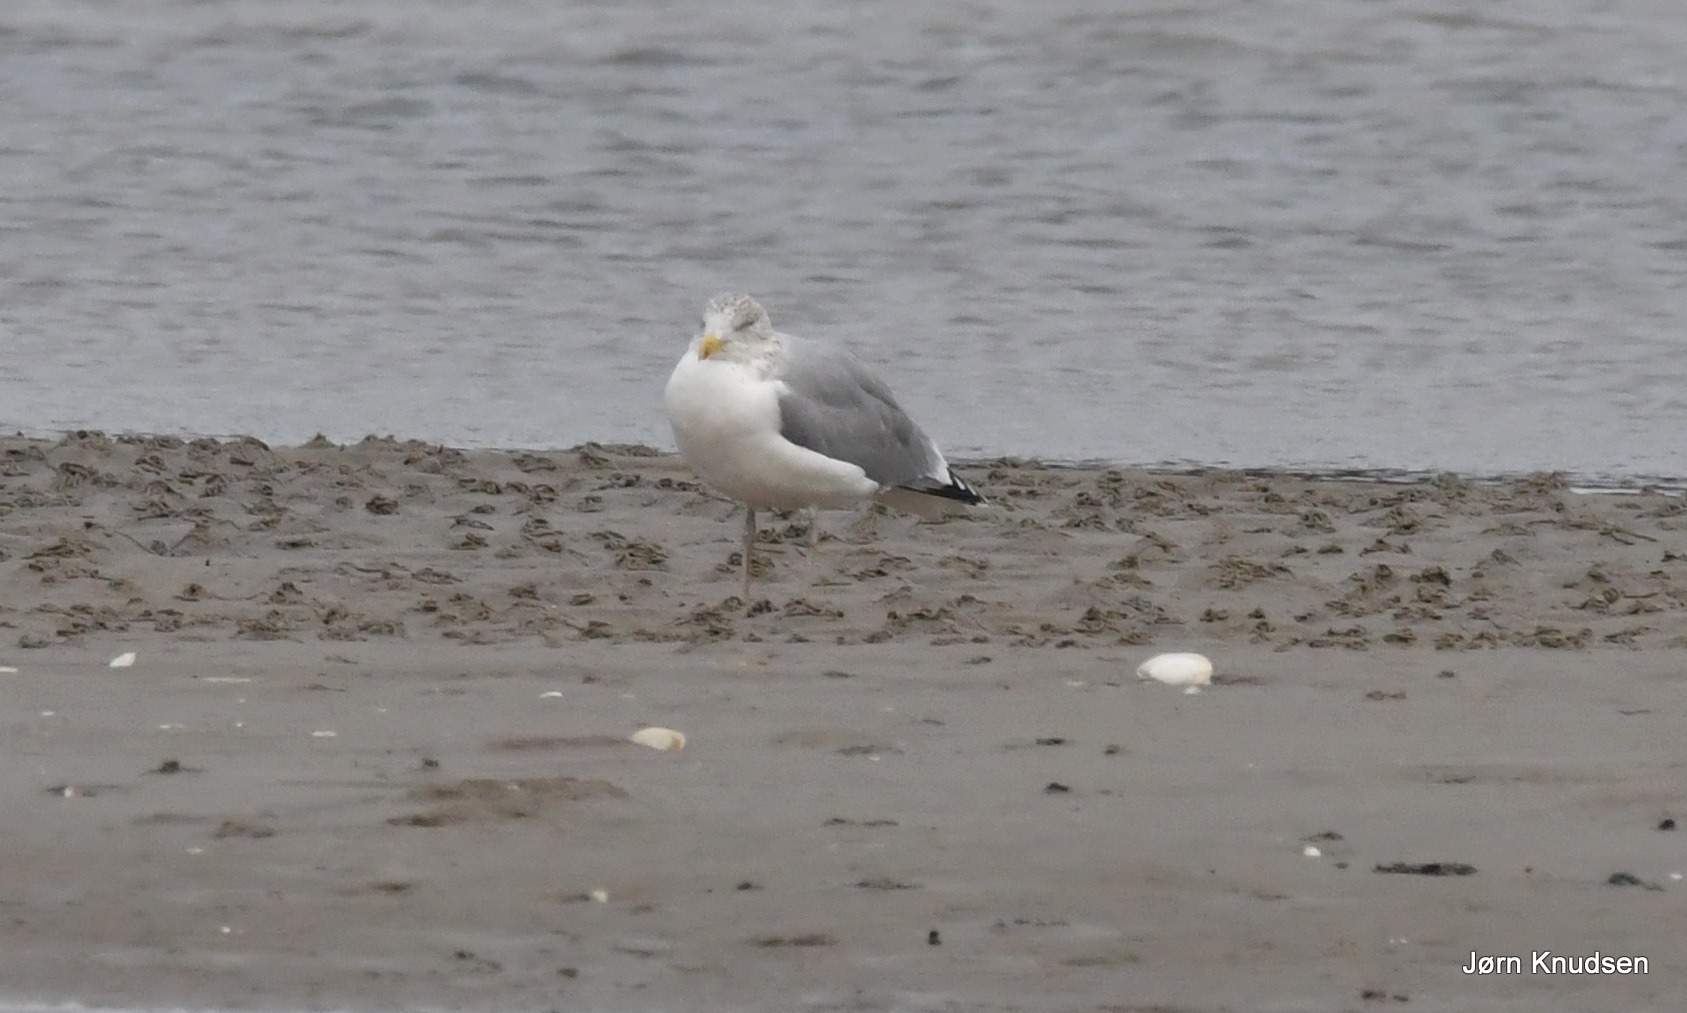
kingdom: Animalia
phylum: Chordata
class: Aves
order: Charadriiformes
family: Laridae
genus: Larus
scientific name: Larus argentatus
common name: Sølvmåge
